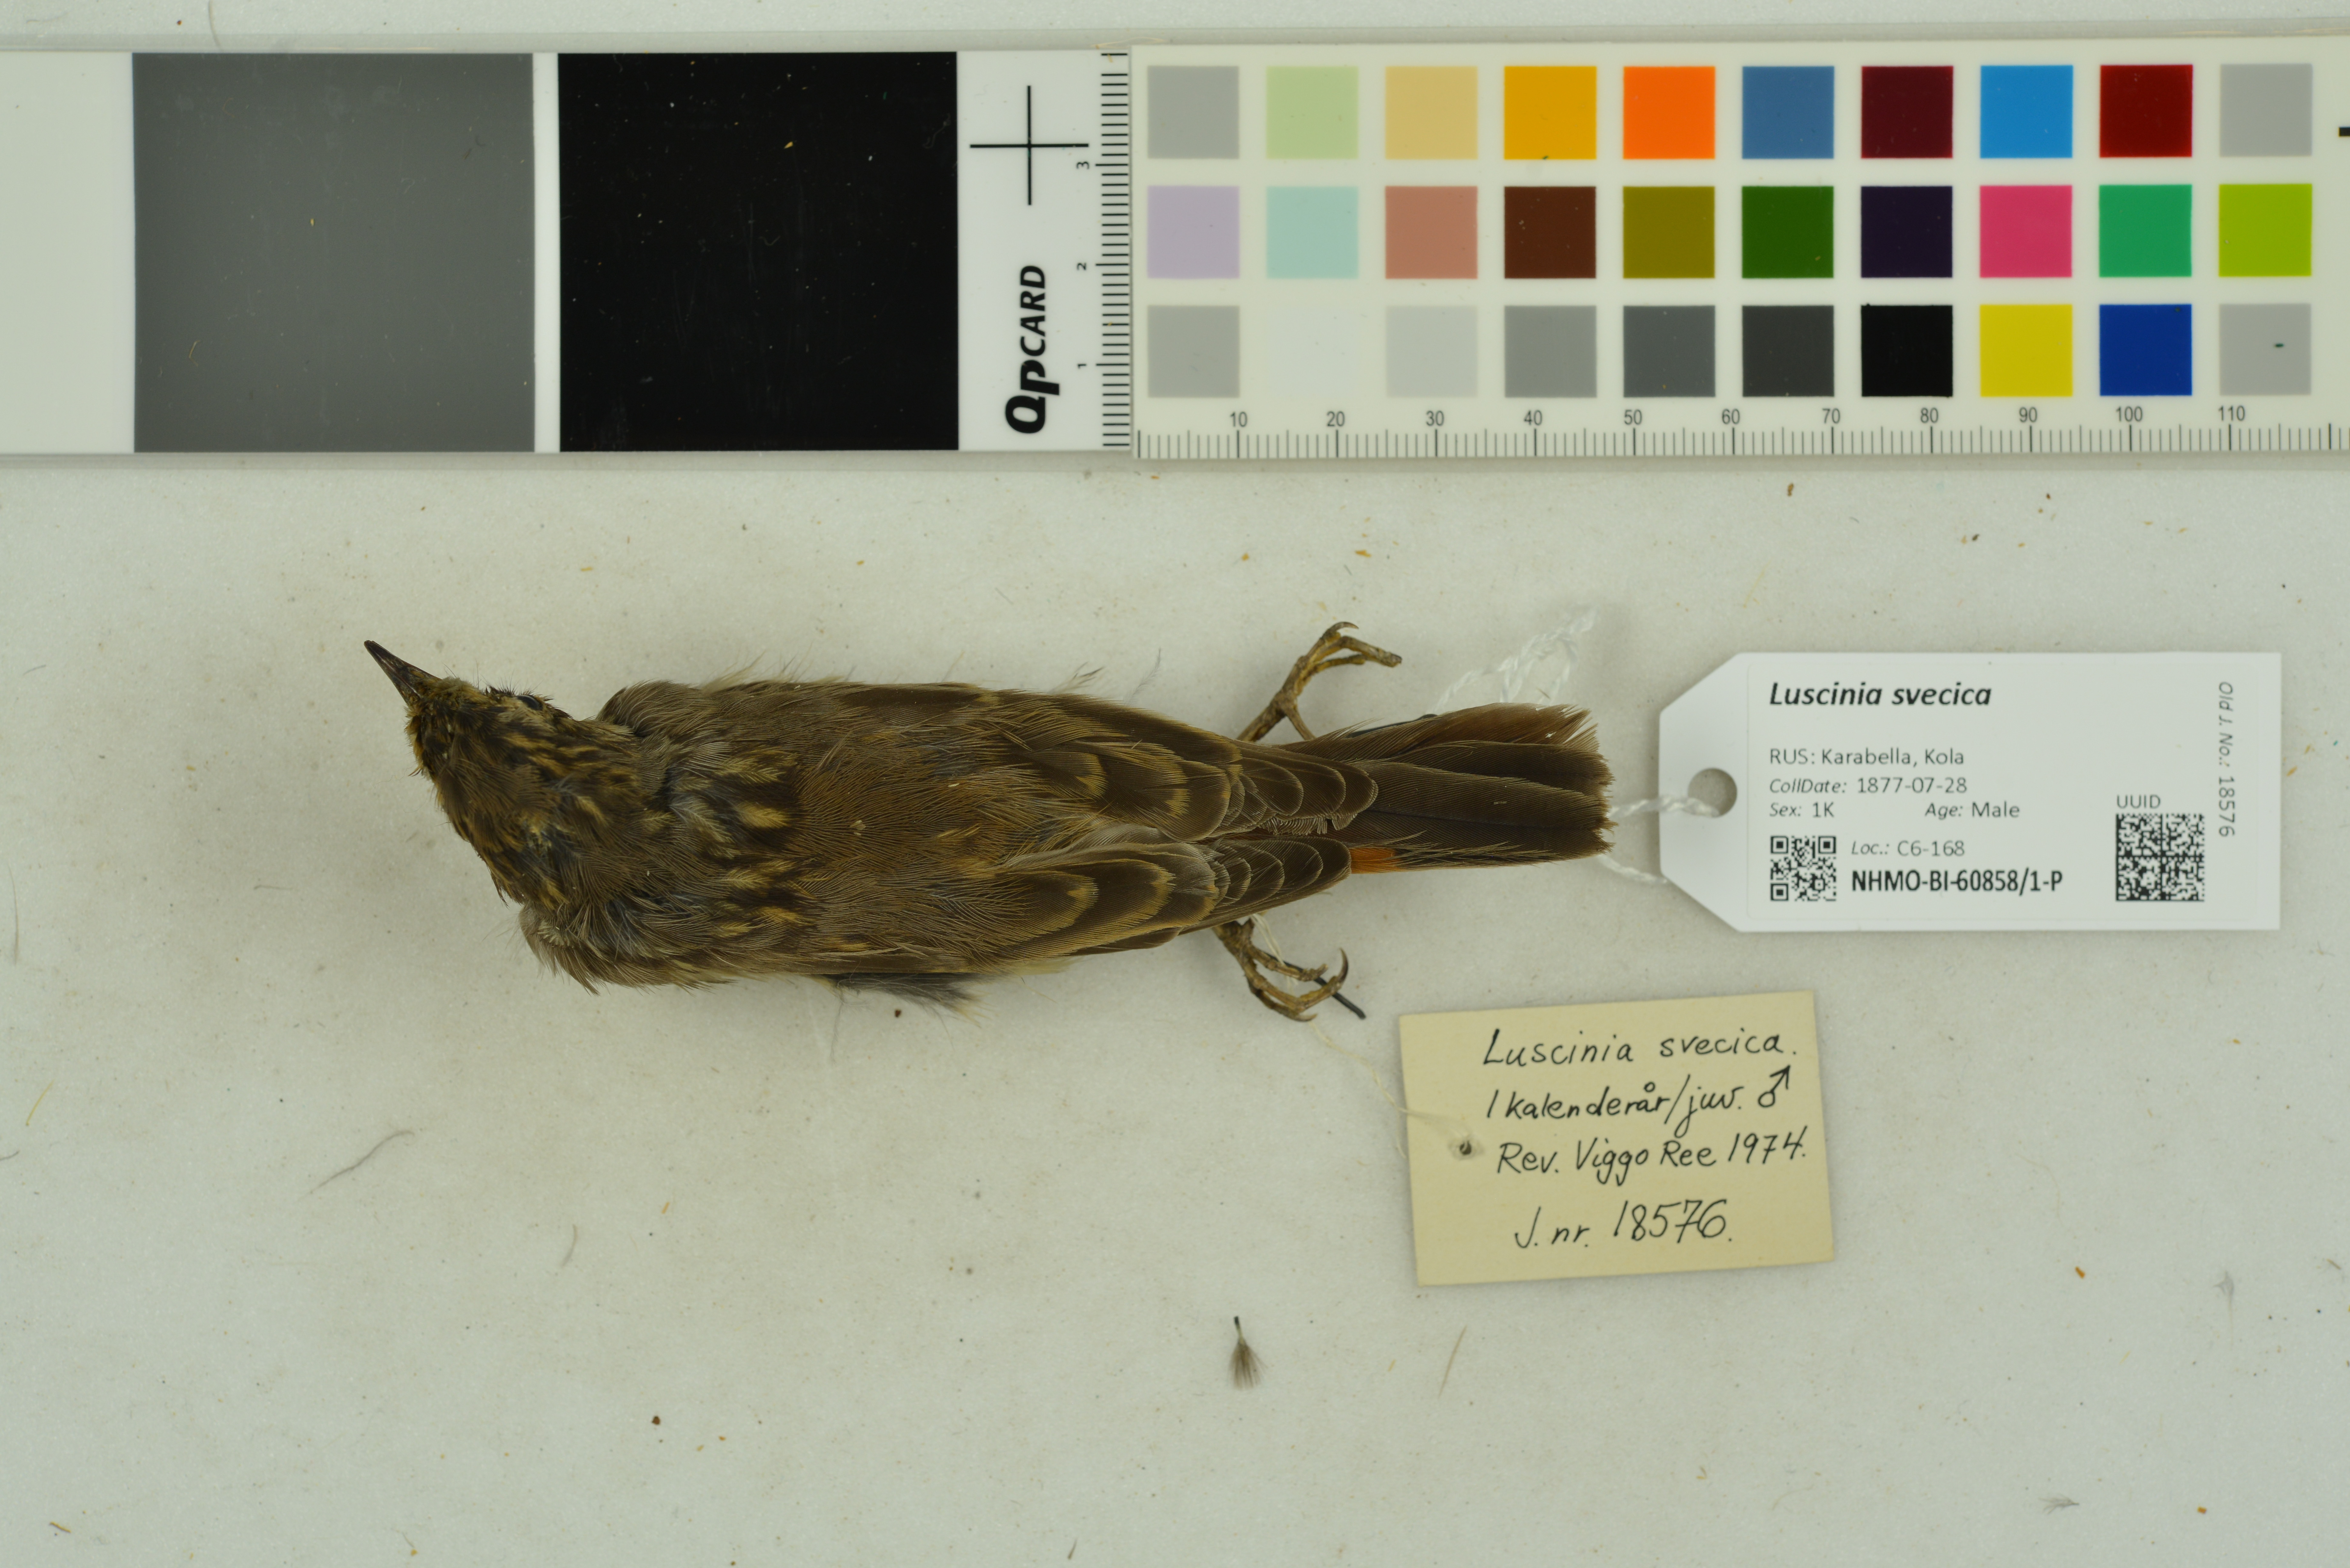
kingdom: Animalia
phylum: Chordata
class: Aves
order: Passeriformes
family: Muscicapidae
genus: Luscinia
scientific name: Luscinia svecica
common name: Bluethroat
